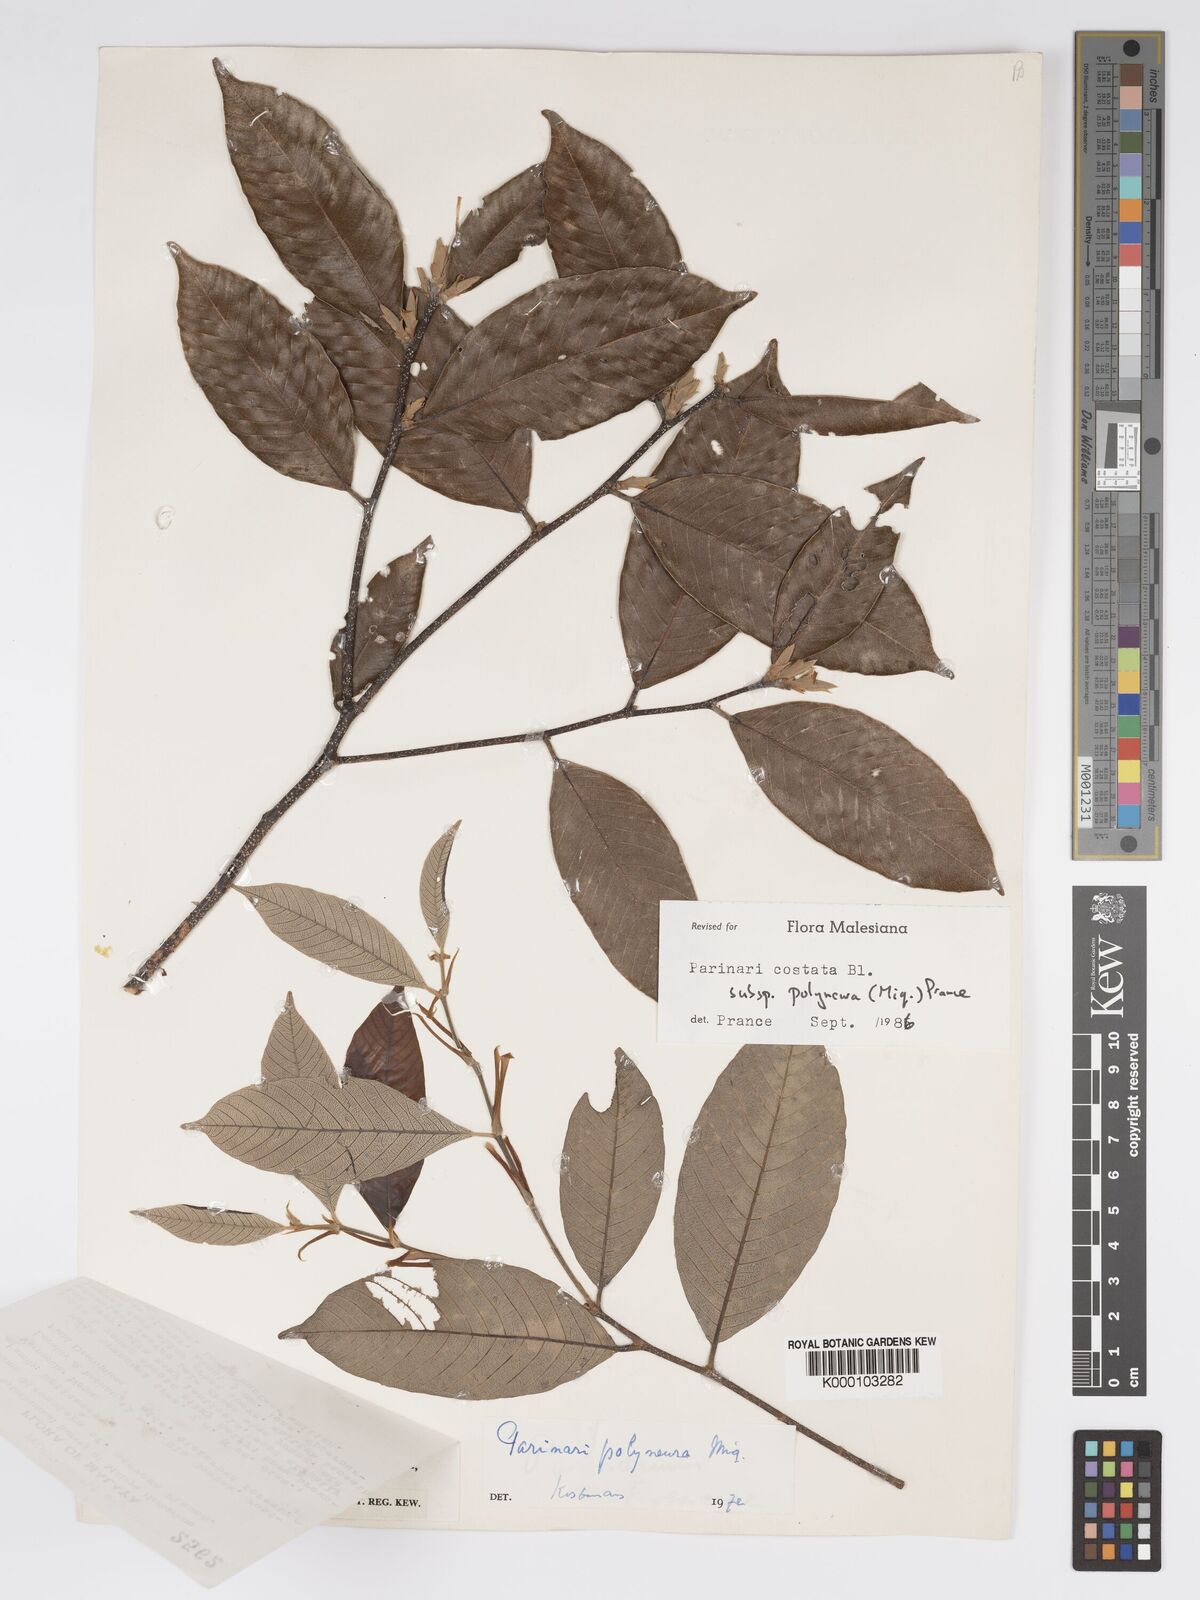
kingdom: Plantae
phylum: Tracheophyta
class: Magnoliopsida
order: Malpighiales
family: Chrysobalanaceae
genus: Parinari
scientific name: Parinari costata
